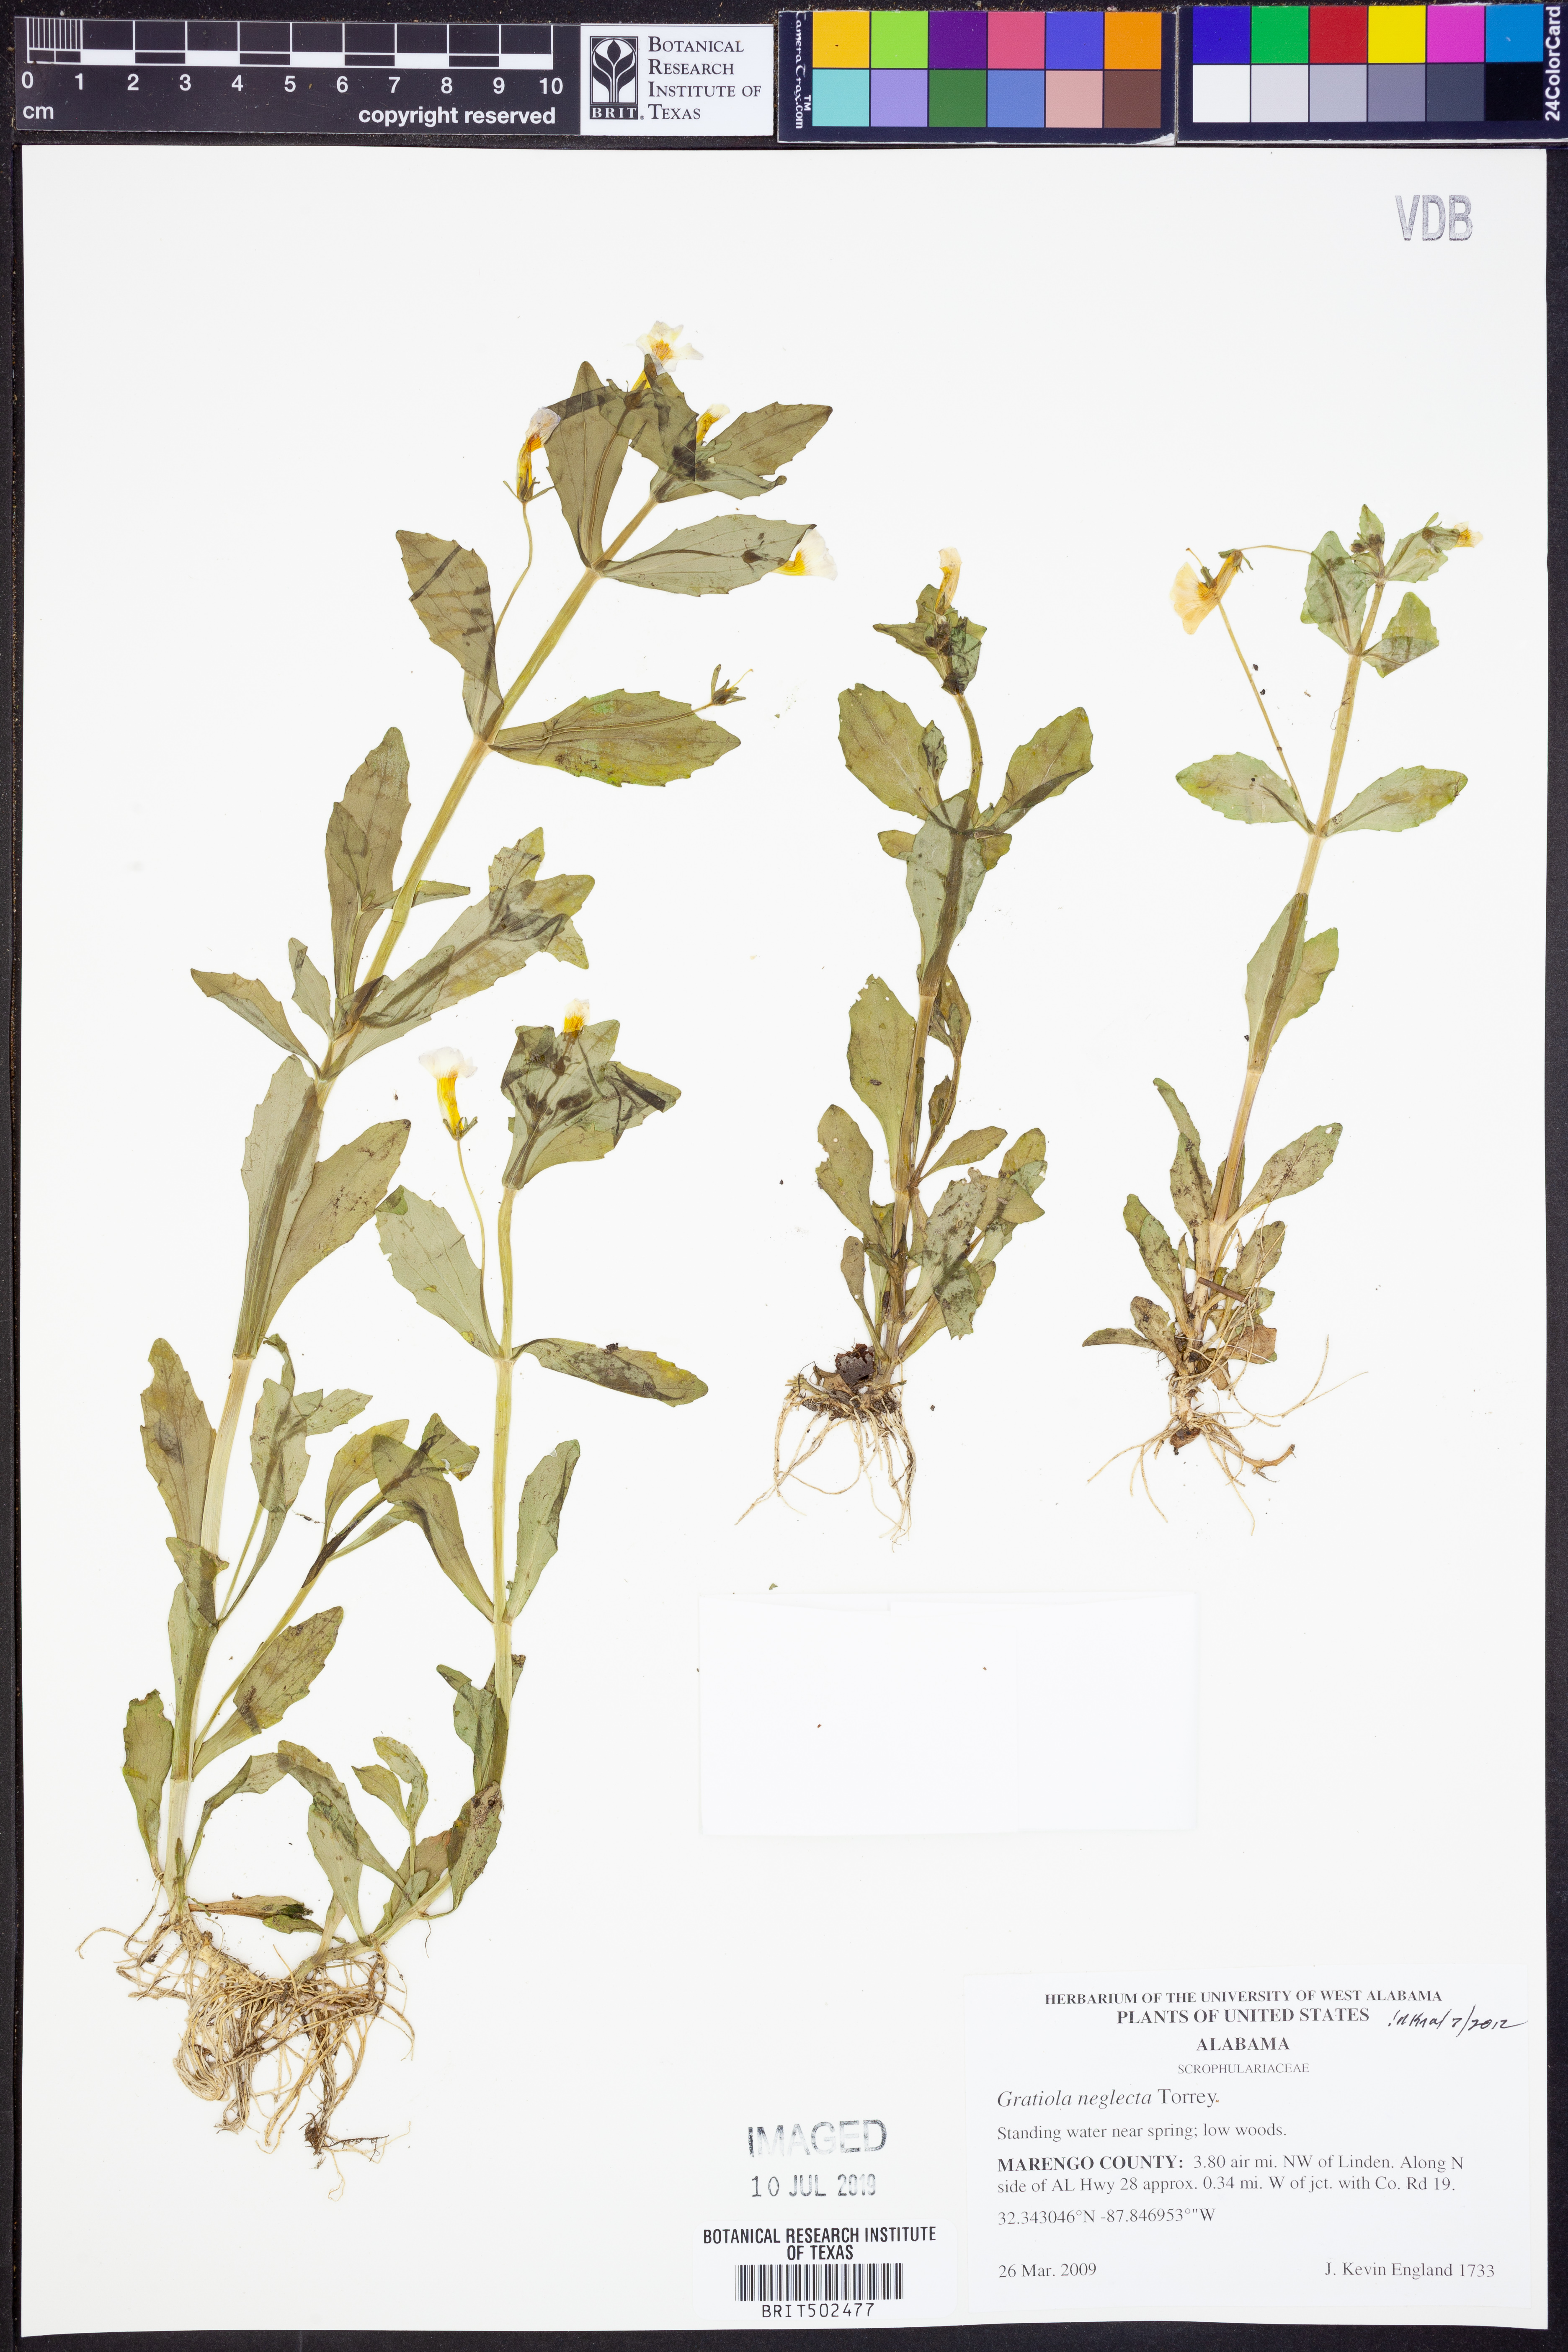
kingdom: Plantae
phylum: Tracheophyta
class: Magnoliopsida
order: Lamiales
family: Plantaginaceae
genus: Gratiola
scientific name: Gratiola neglecta
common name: American hedge-hyssop
